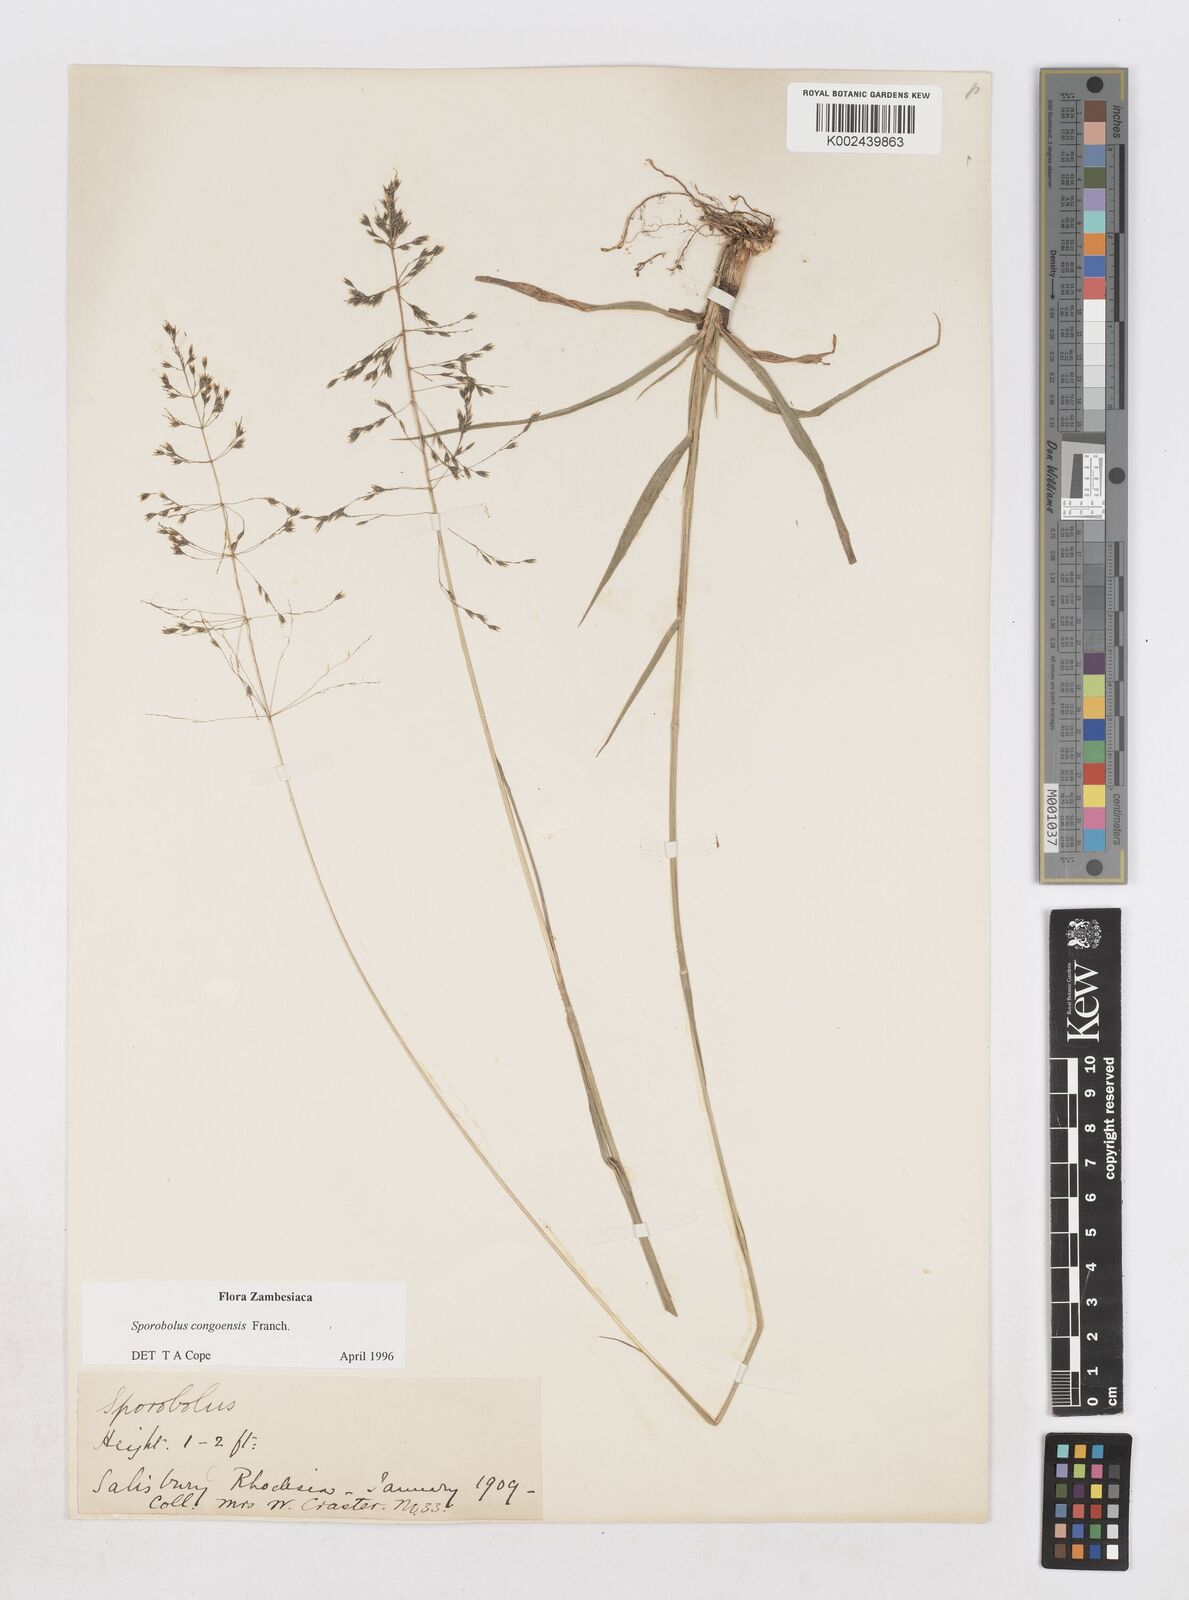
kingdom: Plantae
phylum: Tracheophyta
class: Liliopsida
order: Poales
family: Poaceae
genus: Sporobolus
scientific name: Sporobolus congoensis
